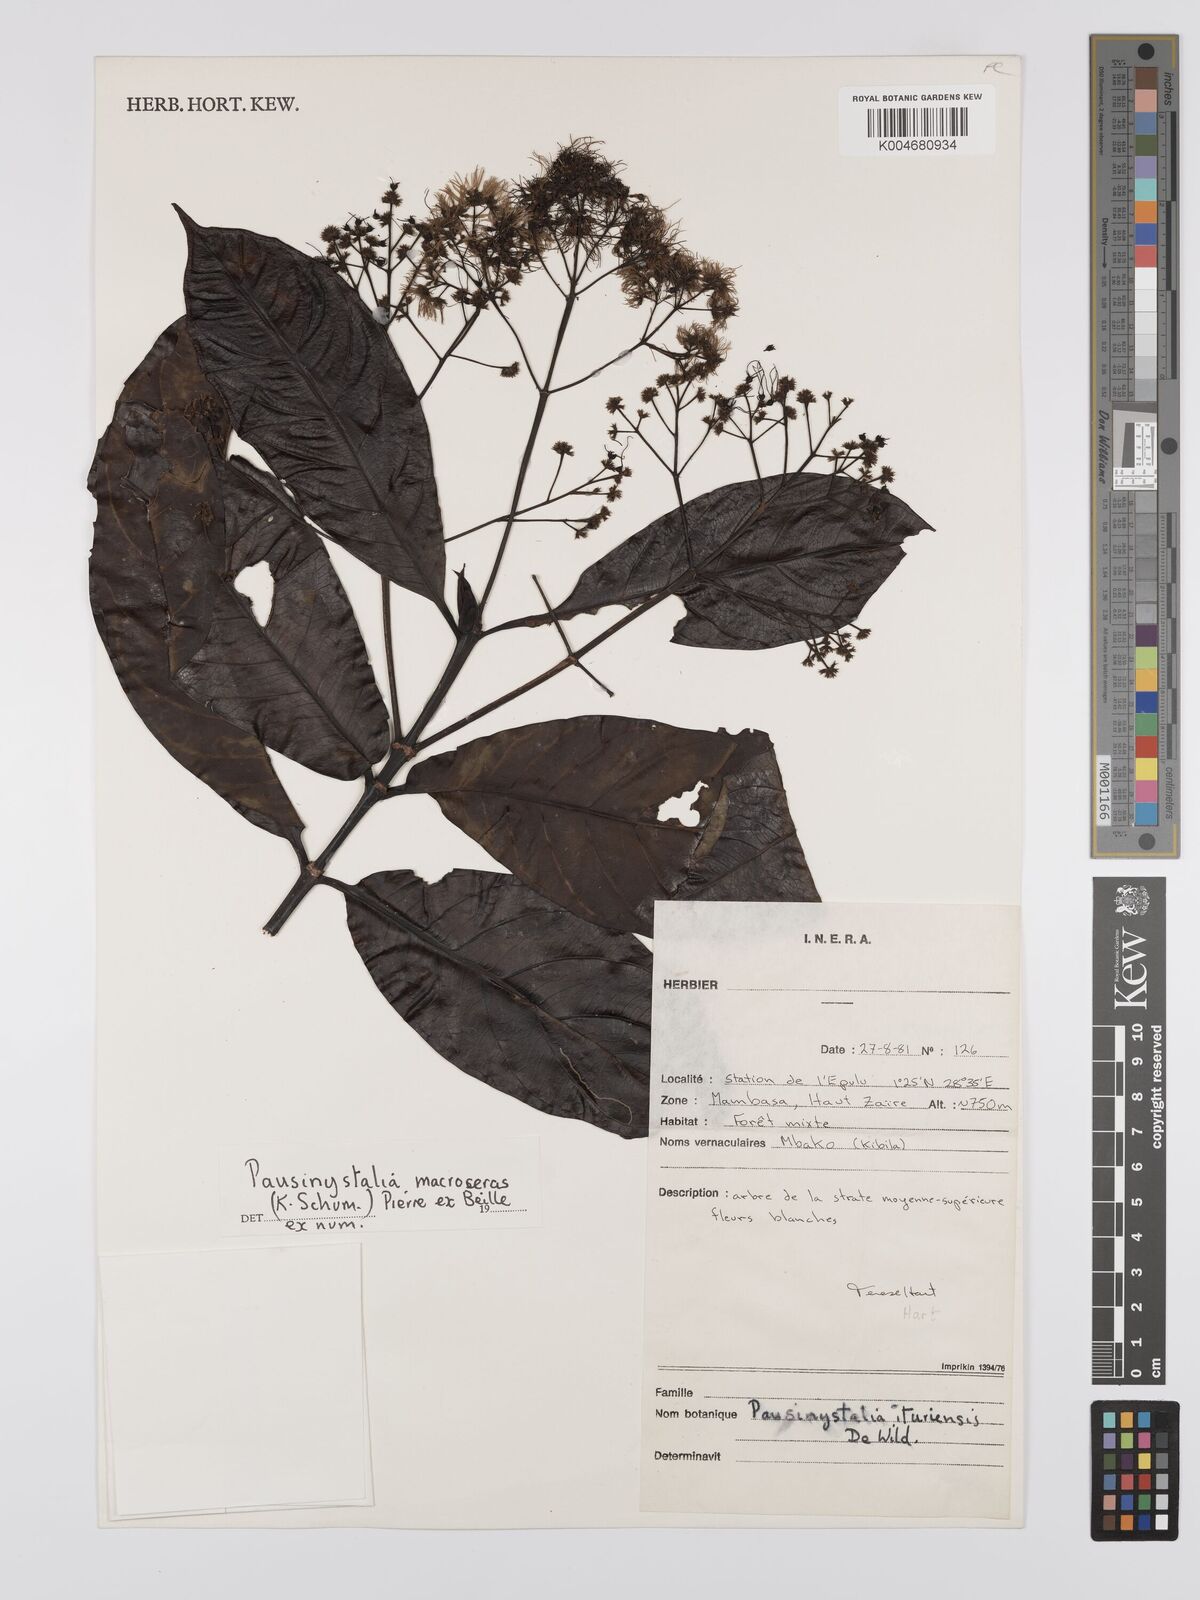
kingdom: Plantae
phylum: Tracheophyta
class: Magnoliopsida
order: Gentianales
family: Rubiaceae
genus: Corynanthe
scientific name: Corynanthe macroceras
